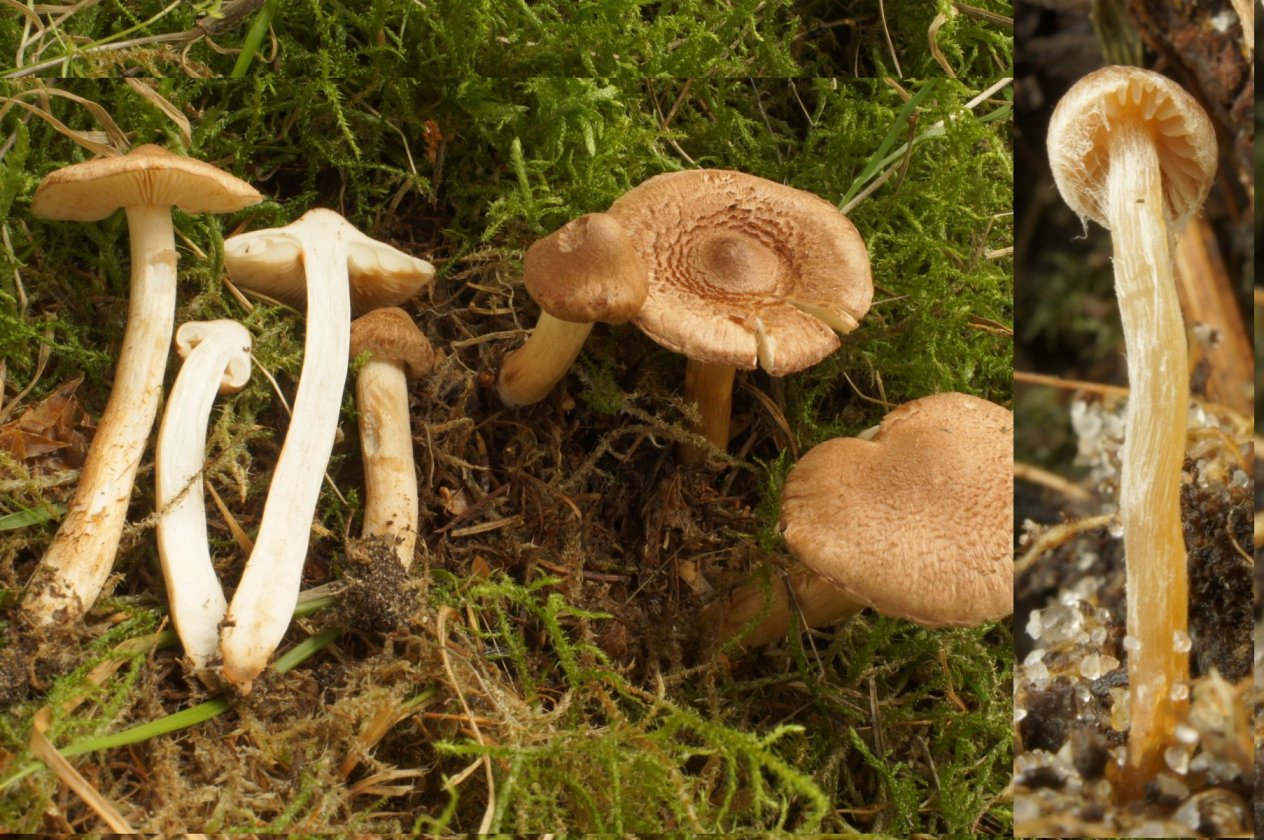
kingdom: Fungi
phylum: Basidiomycota
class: Agaricomycetes
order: Agaricales
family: Tricholomataceae
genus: Tricholoma
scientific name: Tricholoma vaccinum
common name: ko-ridderhat
